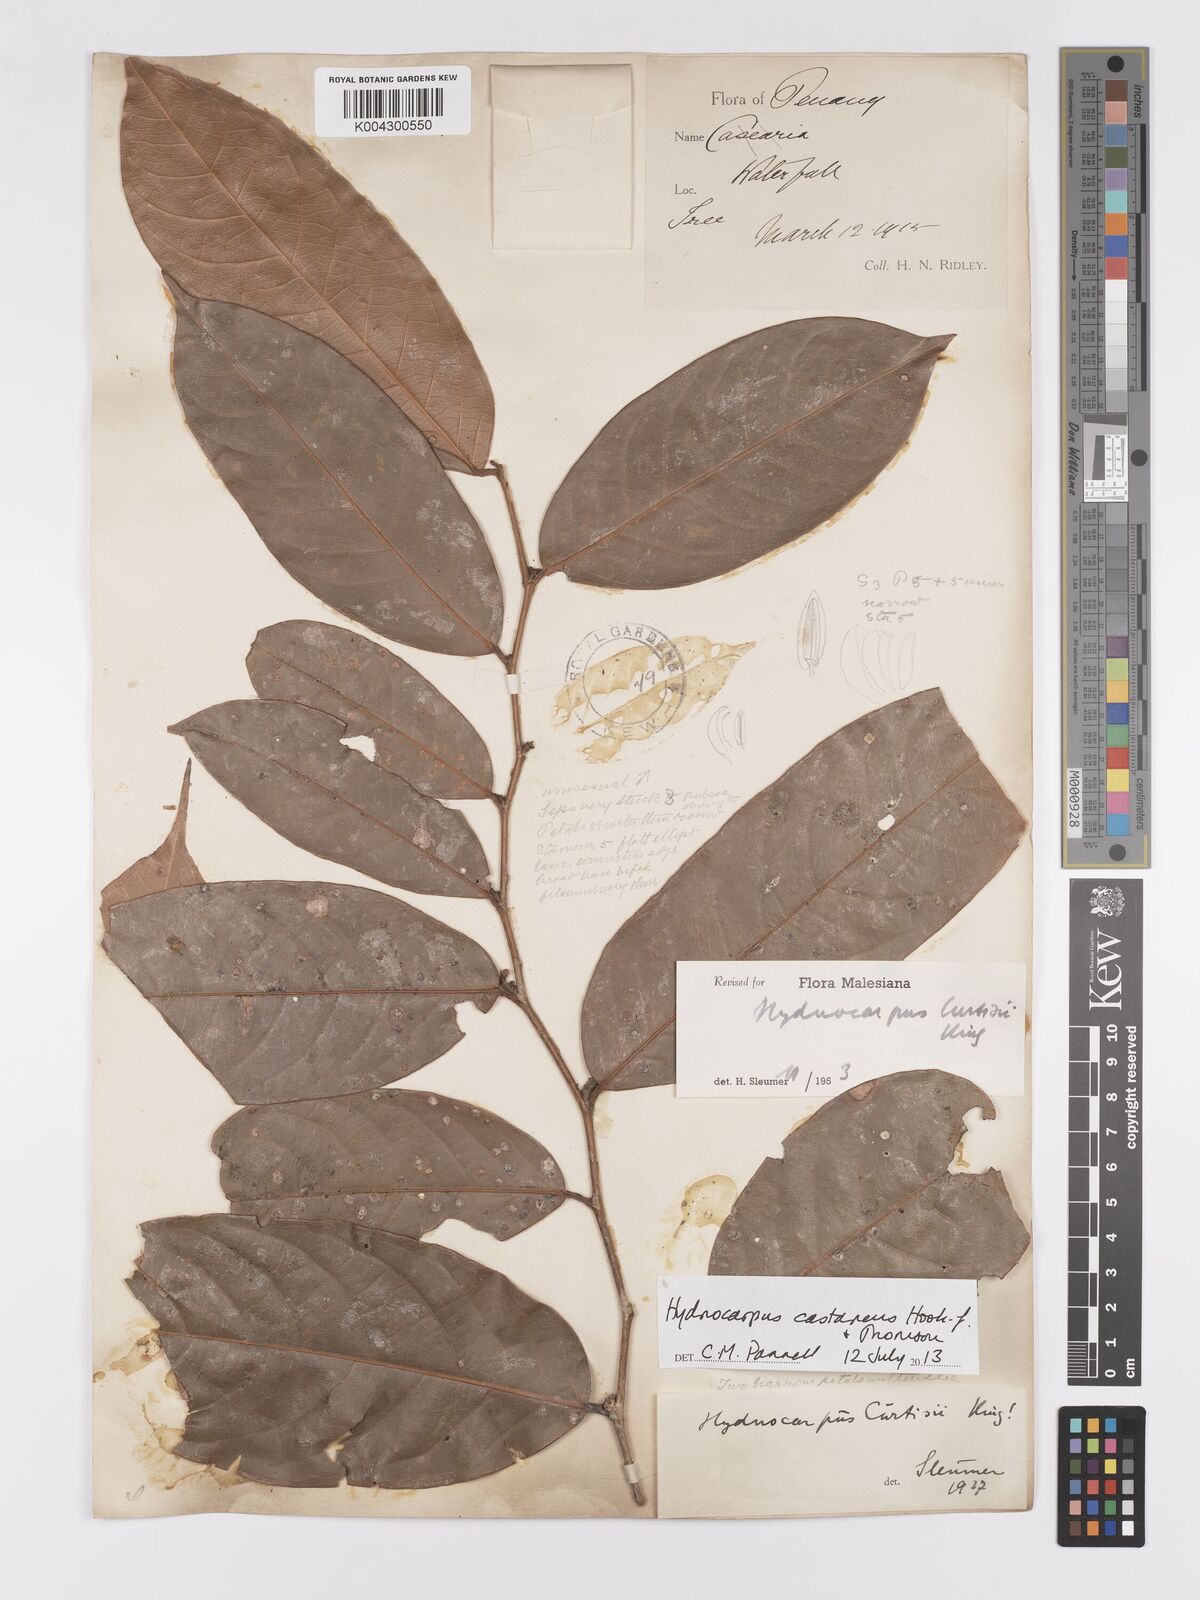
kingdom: Plantae
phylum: Tracheophyta
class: Magnoliopsida
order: Malpighiales
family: Achariaceae
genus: Hydnocarpus
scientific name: Hydnocarpus curtisii
